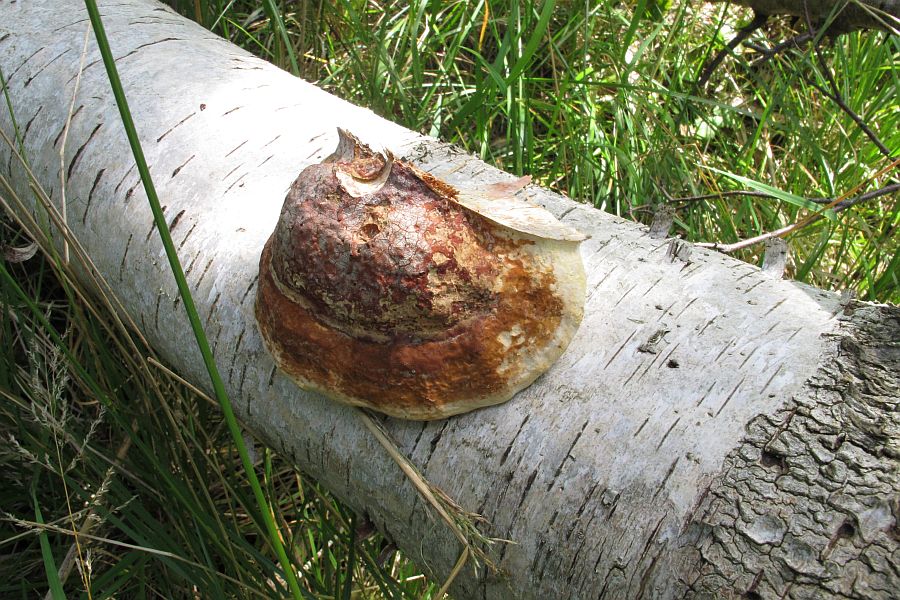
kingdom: Fungi
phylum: Basidiomycota
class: Agaricomycetes
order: Polyporales
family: Fomitopsidaceae
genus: Fomitopsis
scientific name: Fomitopsis pinicola
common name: randbæltet hovporesvamp
